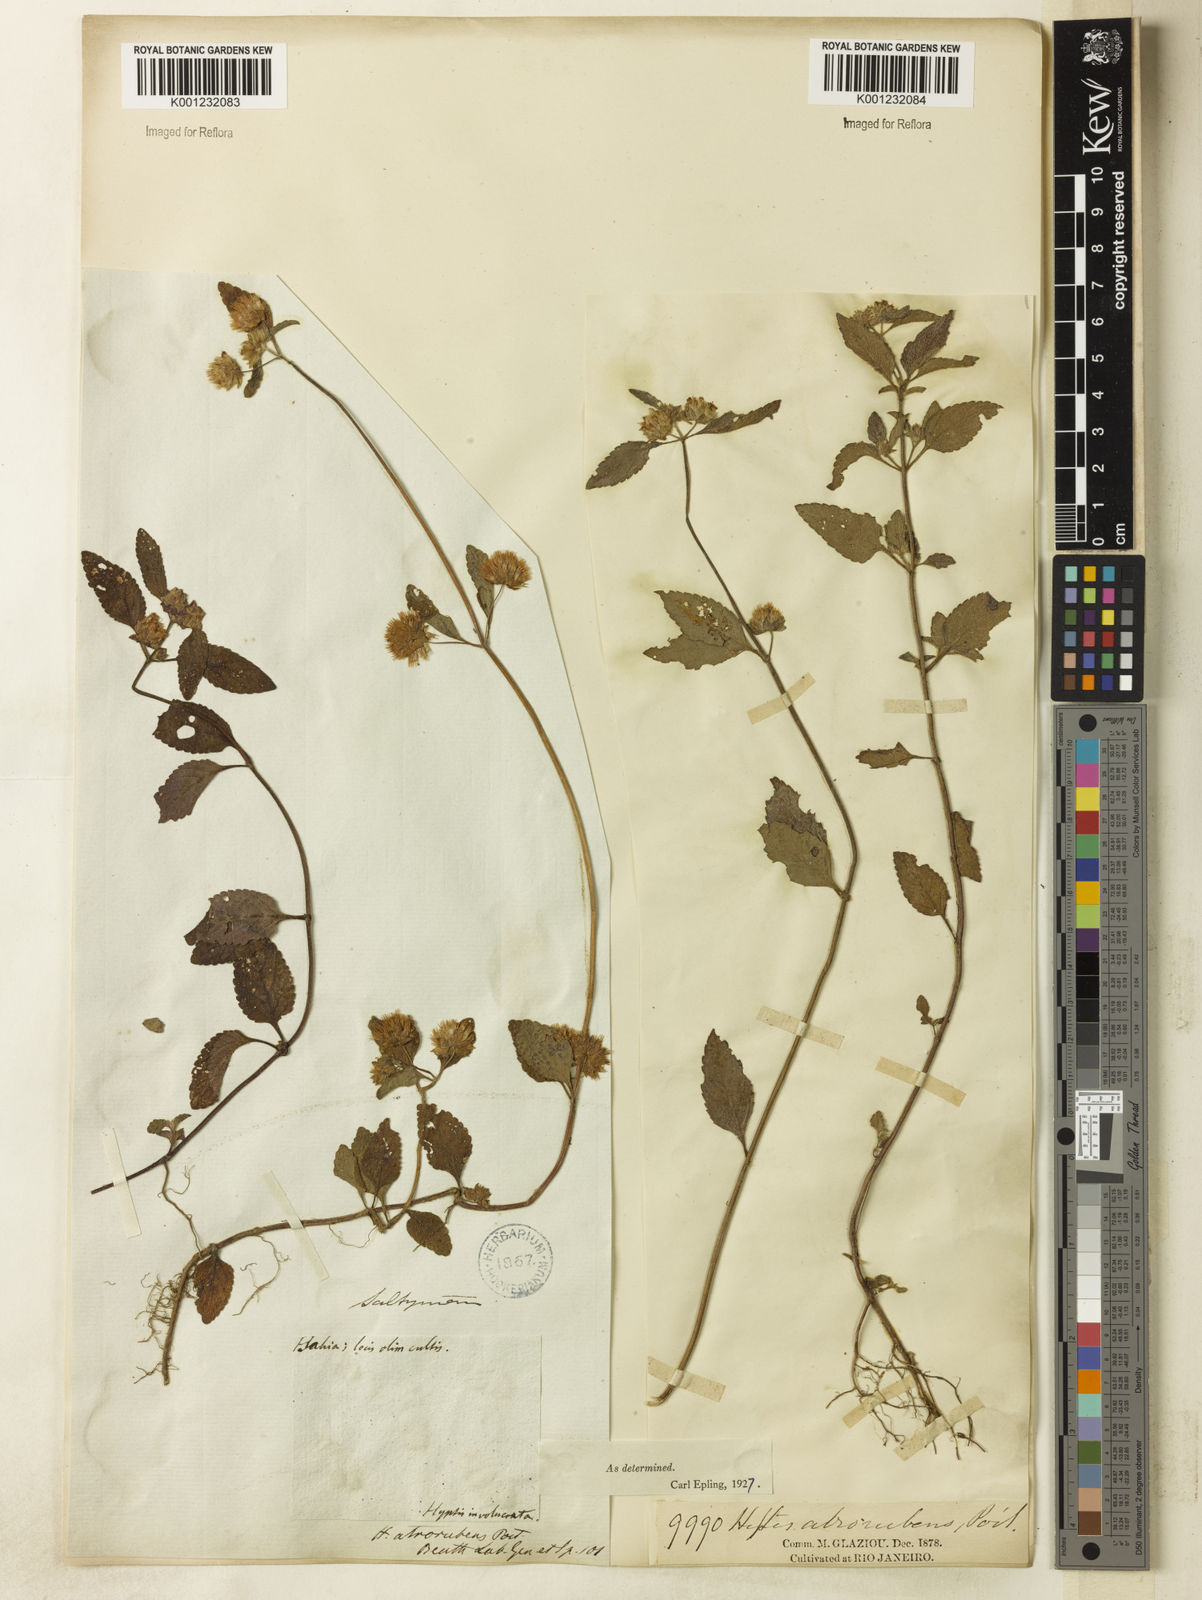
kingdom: Plantae
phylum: Tracheophyta
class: Magnoliopsida
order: Lamiales
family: Lamiaceae
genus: Hyptis
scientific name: Hyptis atrorubens
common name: Lanmant
